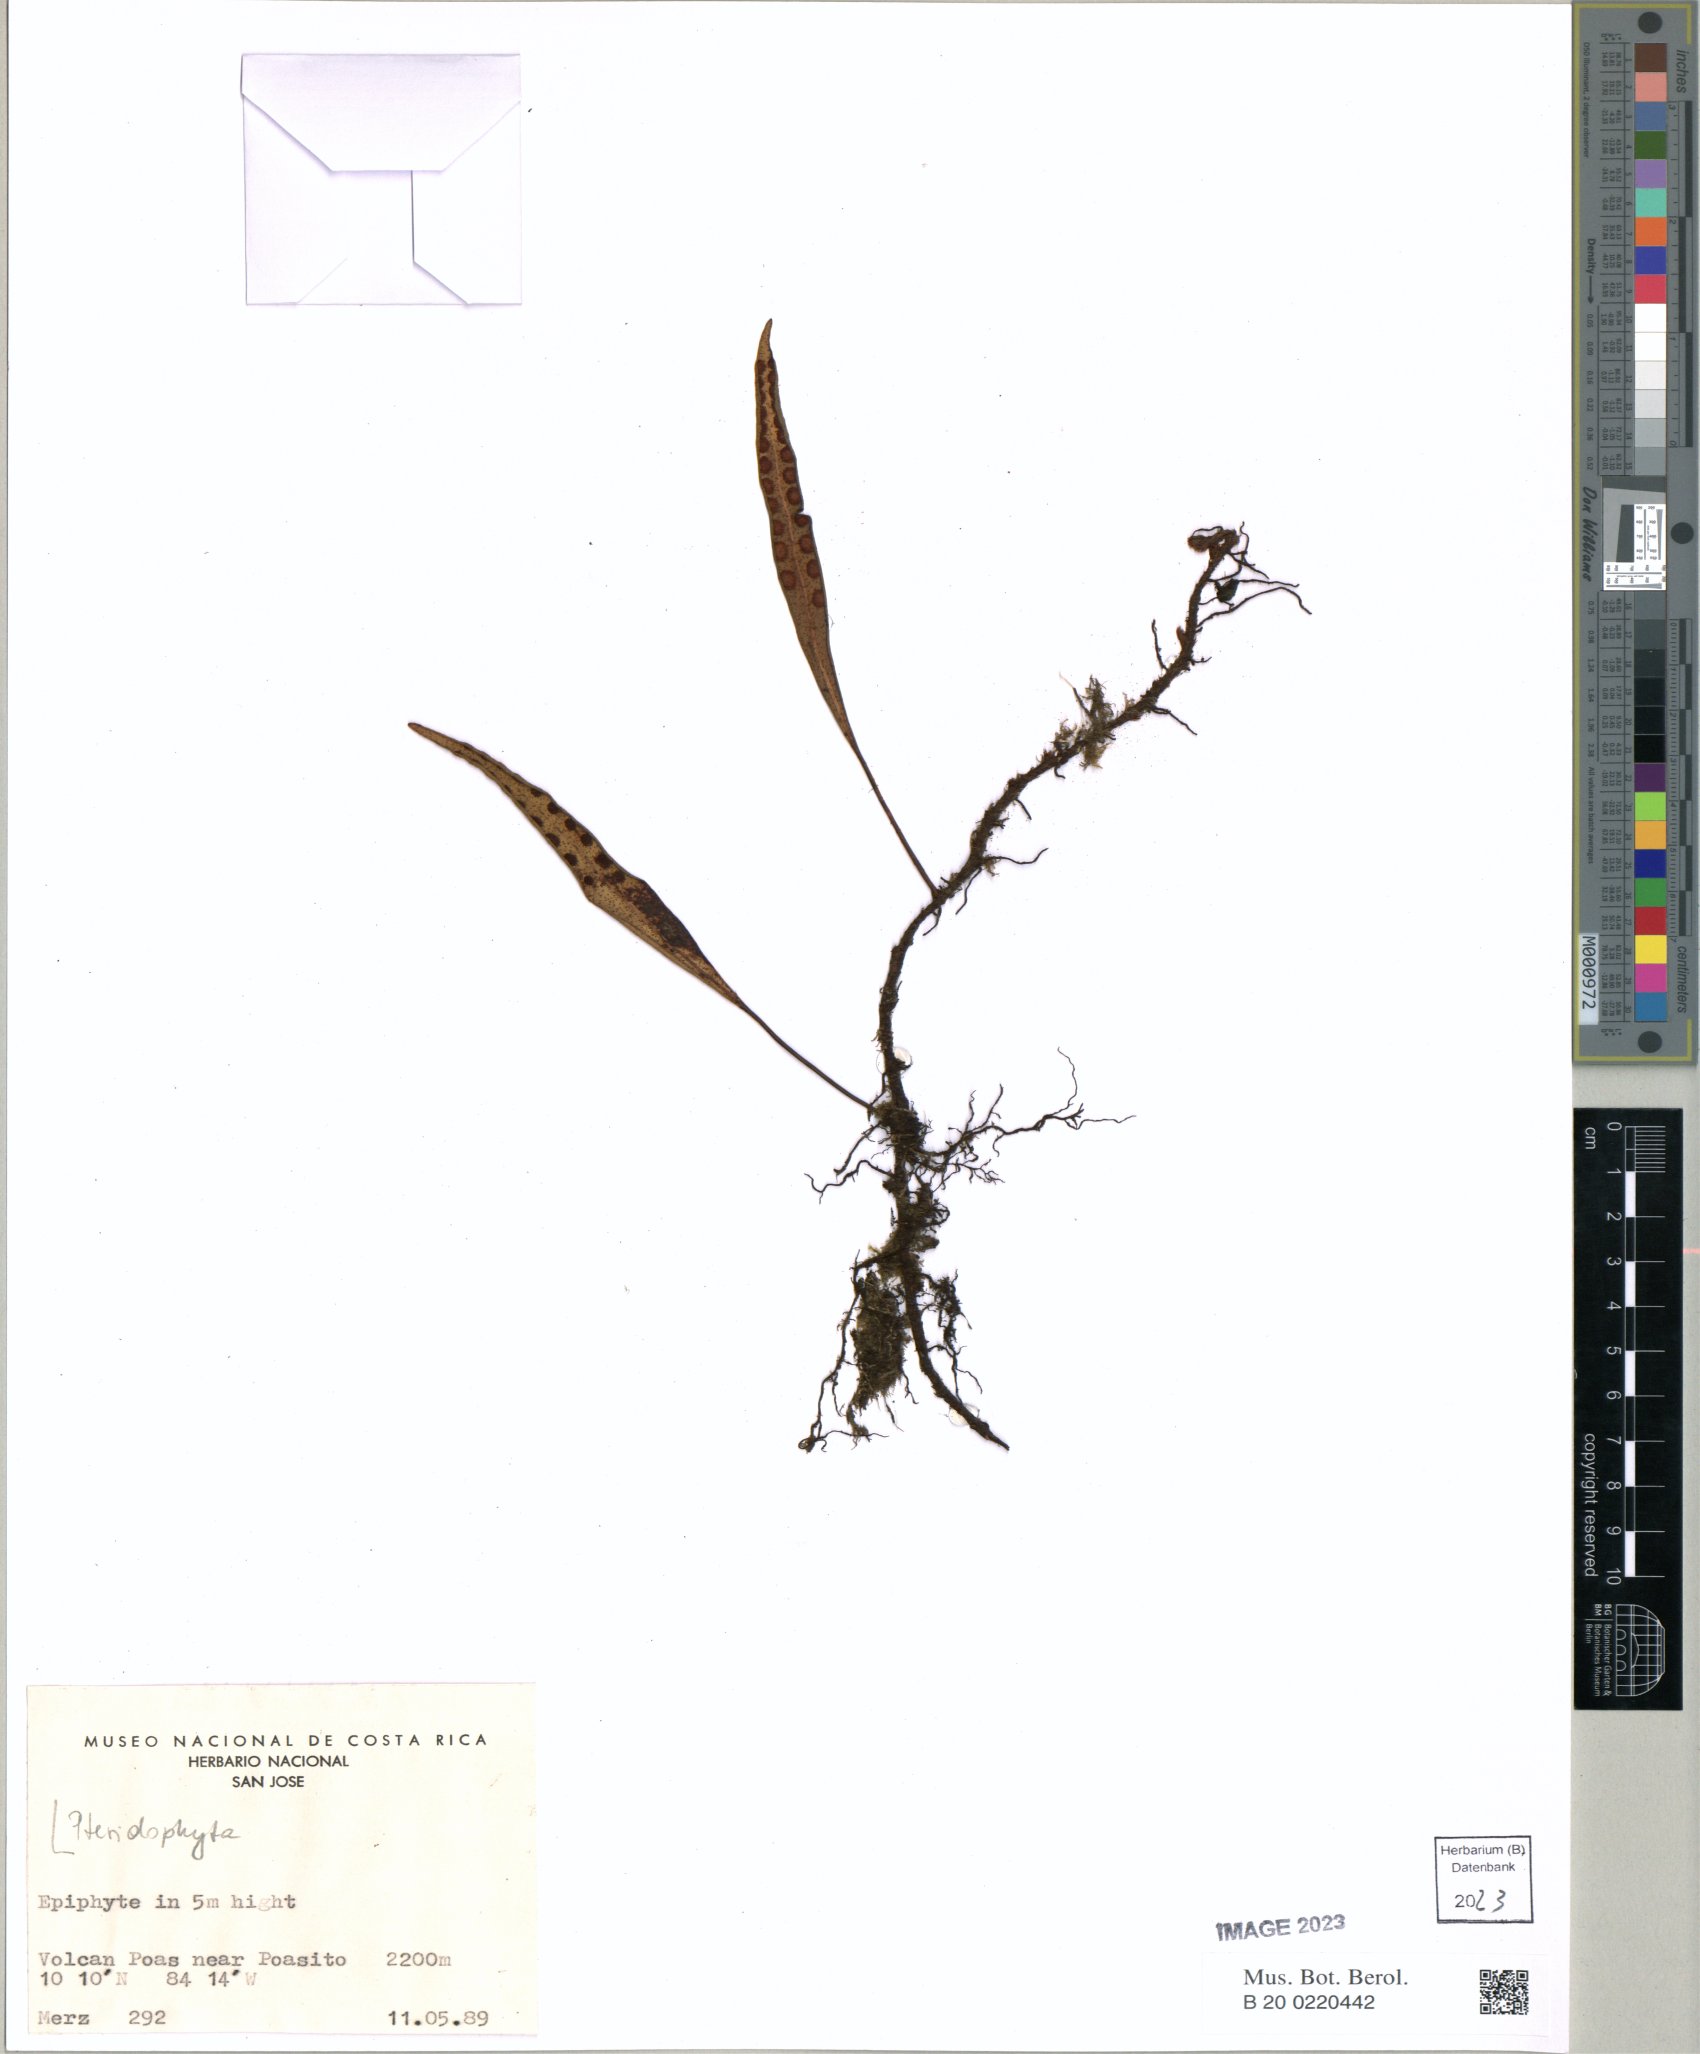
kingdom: Plantae
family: Pteridophyta
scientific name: Pteridophyta
